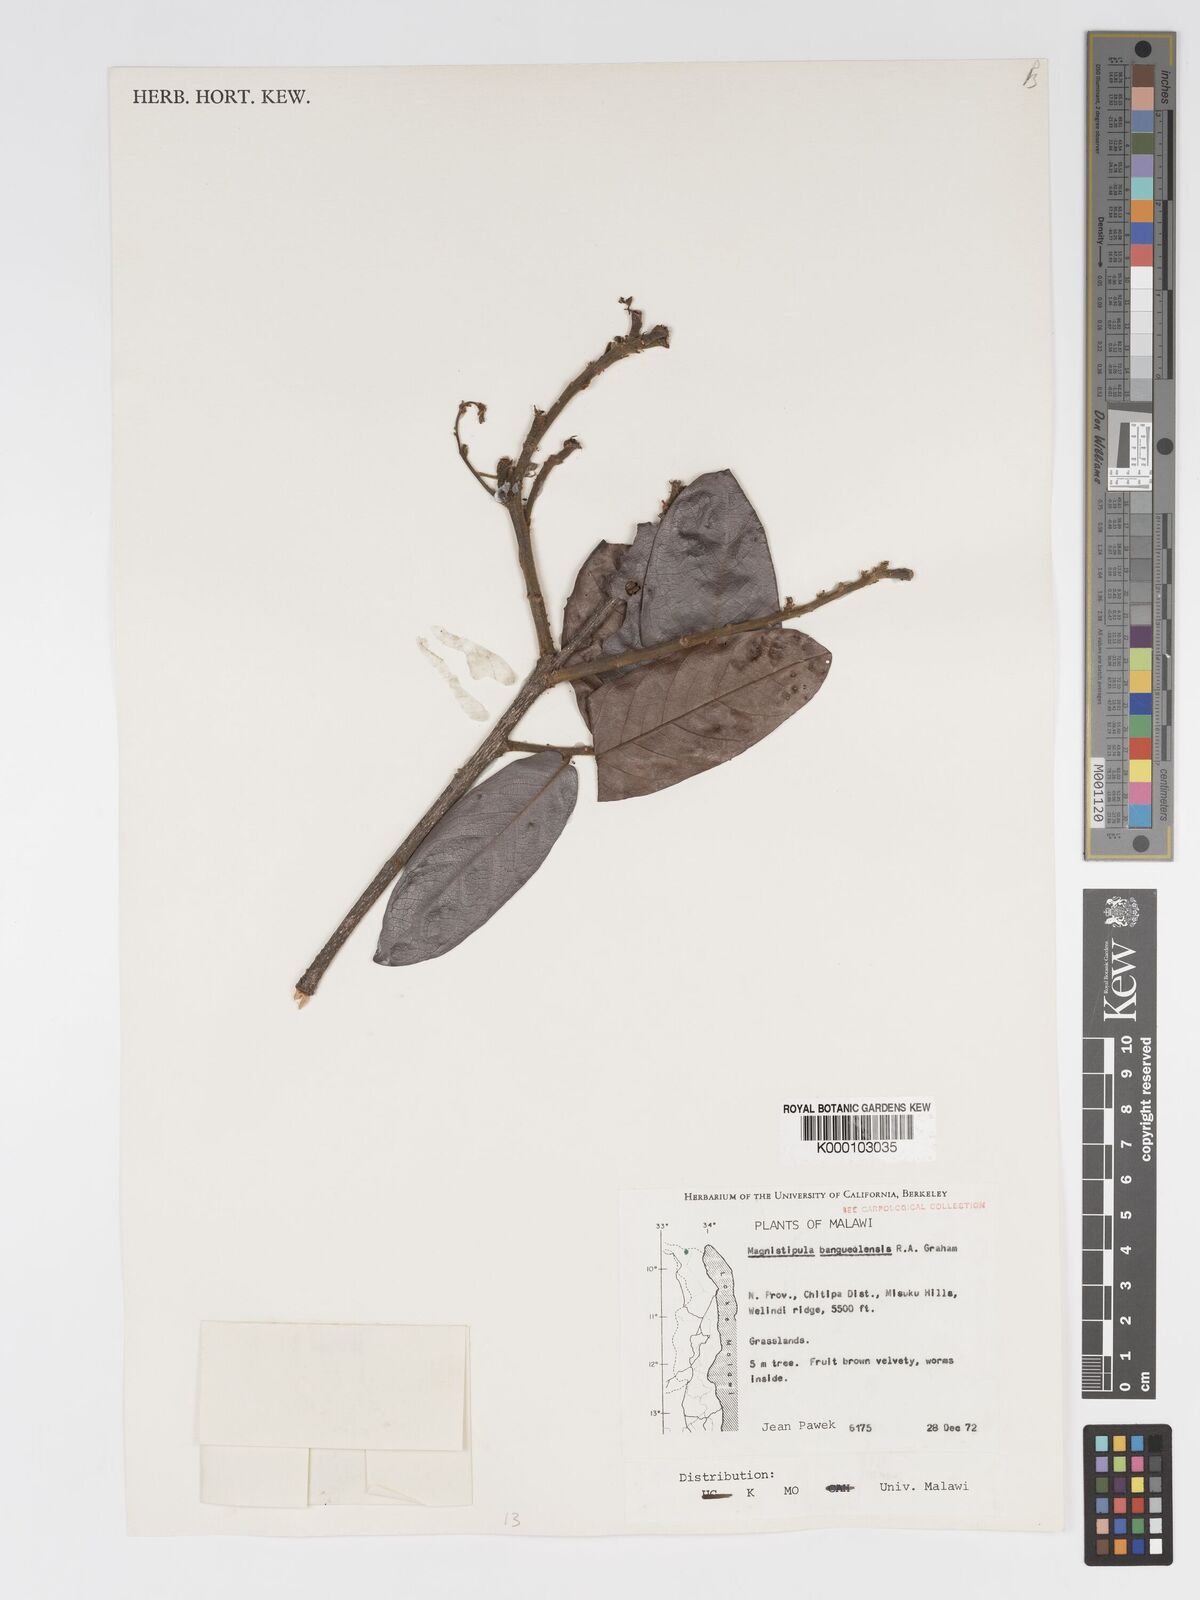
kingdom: Plantae
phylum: Tracheophyta
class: Magnoliopsida
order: Malpighiales
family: Chrysobalanaceae
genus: Magnistipula
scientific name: Magnistipula butayei
